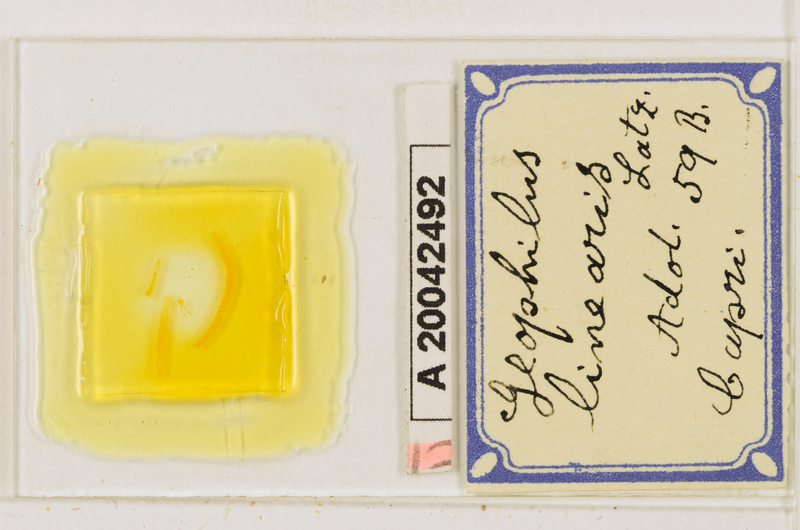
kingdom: Animalia
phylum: Arthropoda
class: Chilopoda
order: Geophilomorpha
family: Geophilidae
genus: Stenotaenia
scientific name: Stenotaenia linearis
